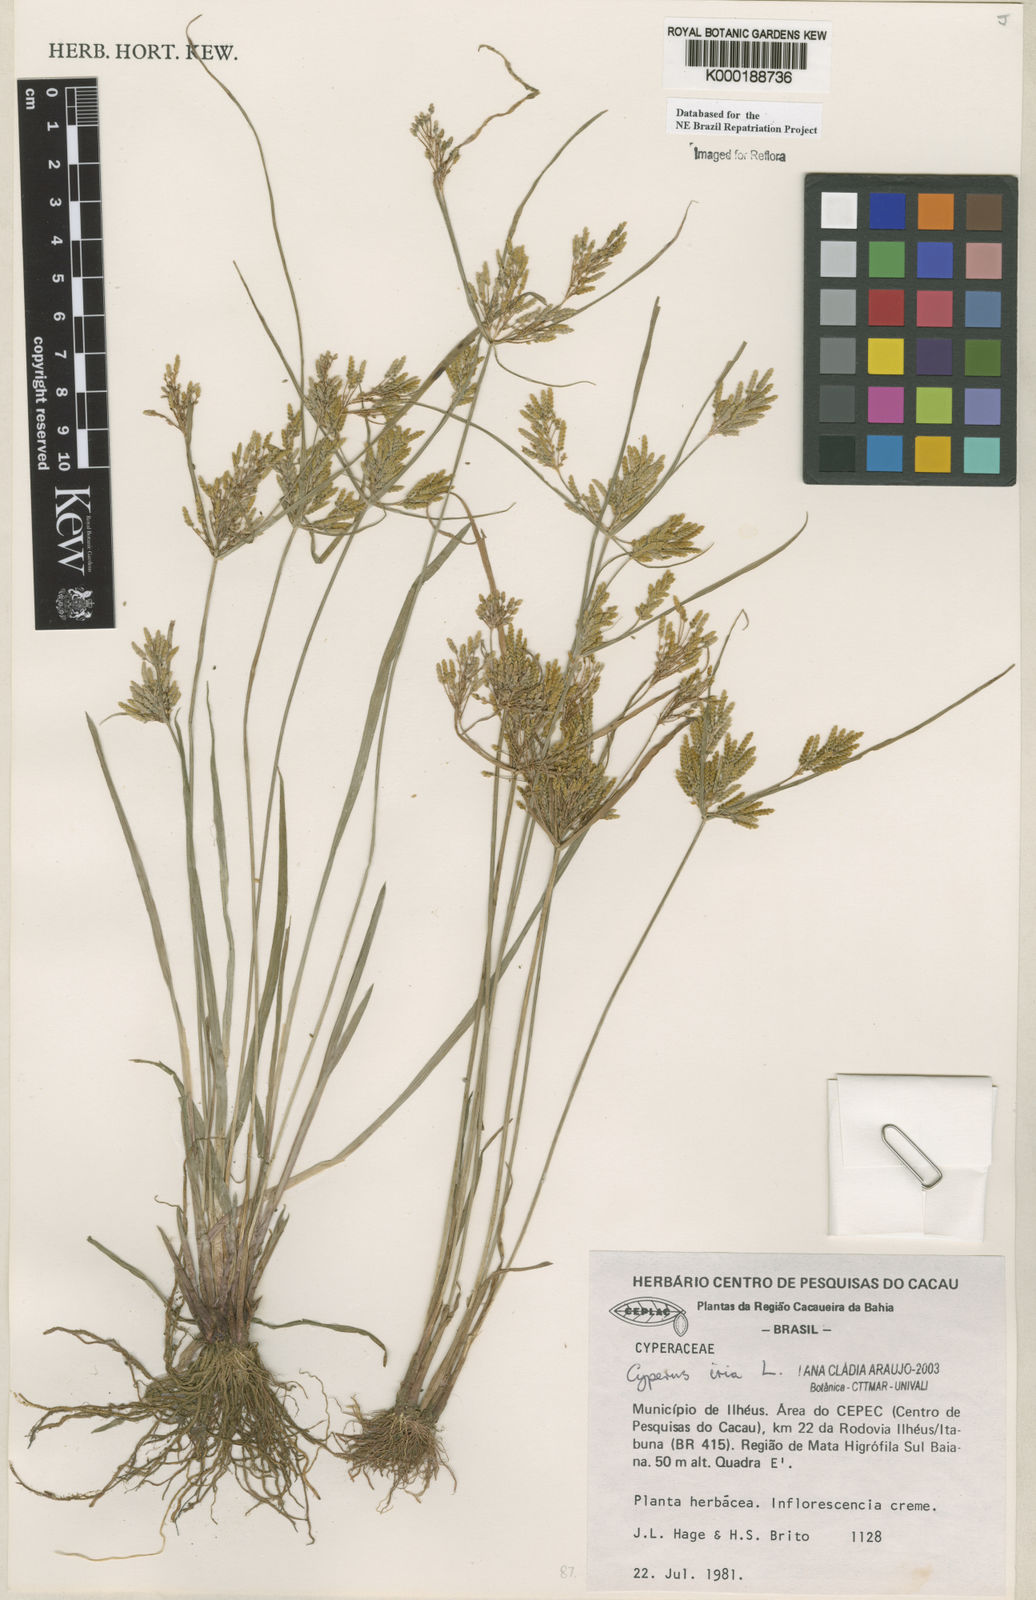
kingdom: Plantae
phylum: Tracheophyta
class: Liliopsida
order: Poales
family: Cyperaceae
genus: Cyperus
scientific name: Cyperus iria
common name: Ricefield flatsedge
